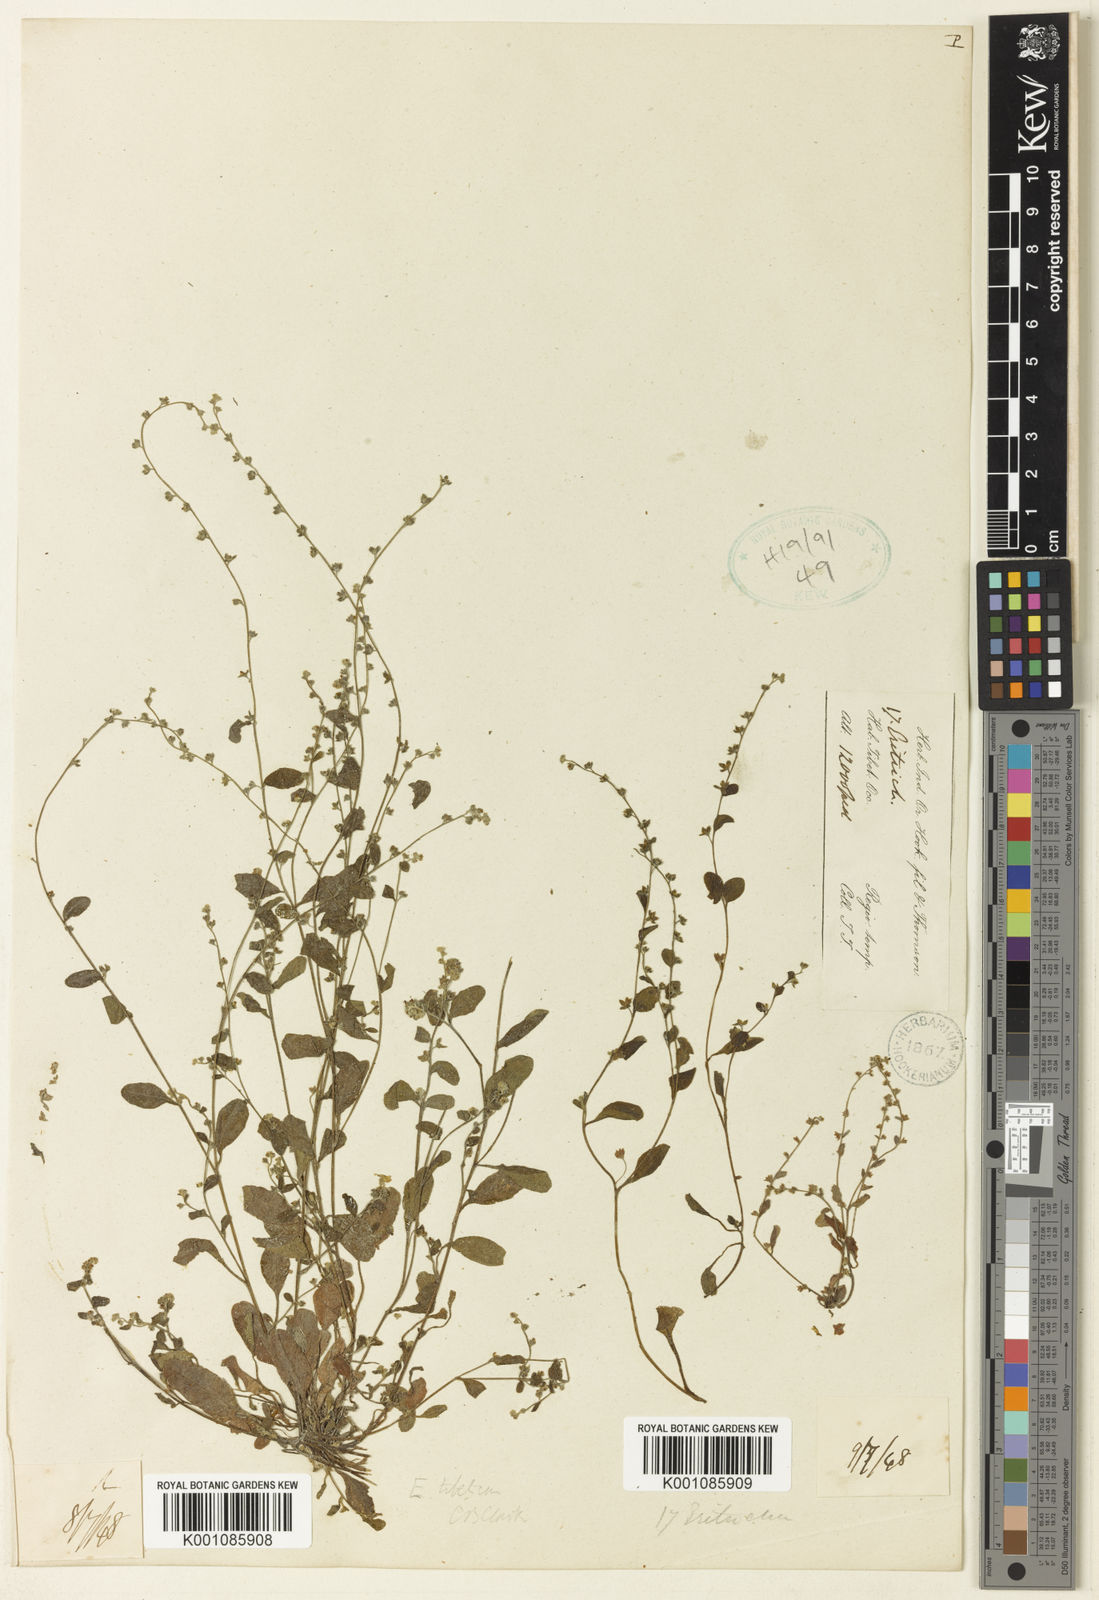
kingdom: Plantae
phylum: Tracheophyta
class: Magnoliopsida
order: Boraginales
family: Boraginaceae
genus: Trigonotis
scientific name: Trigonotis
